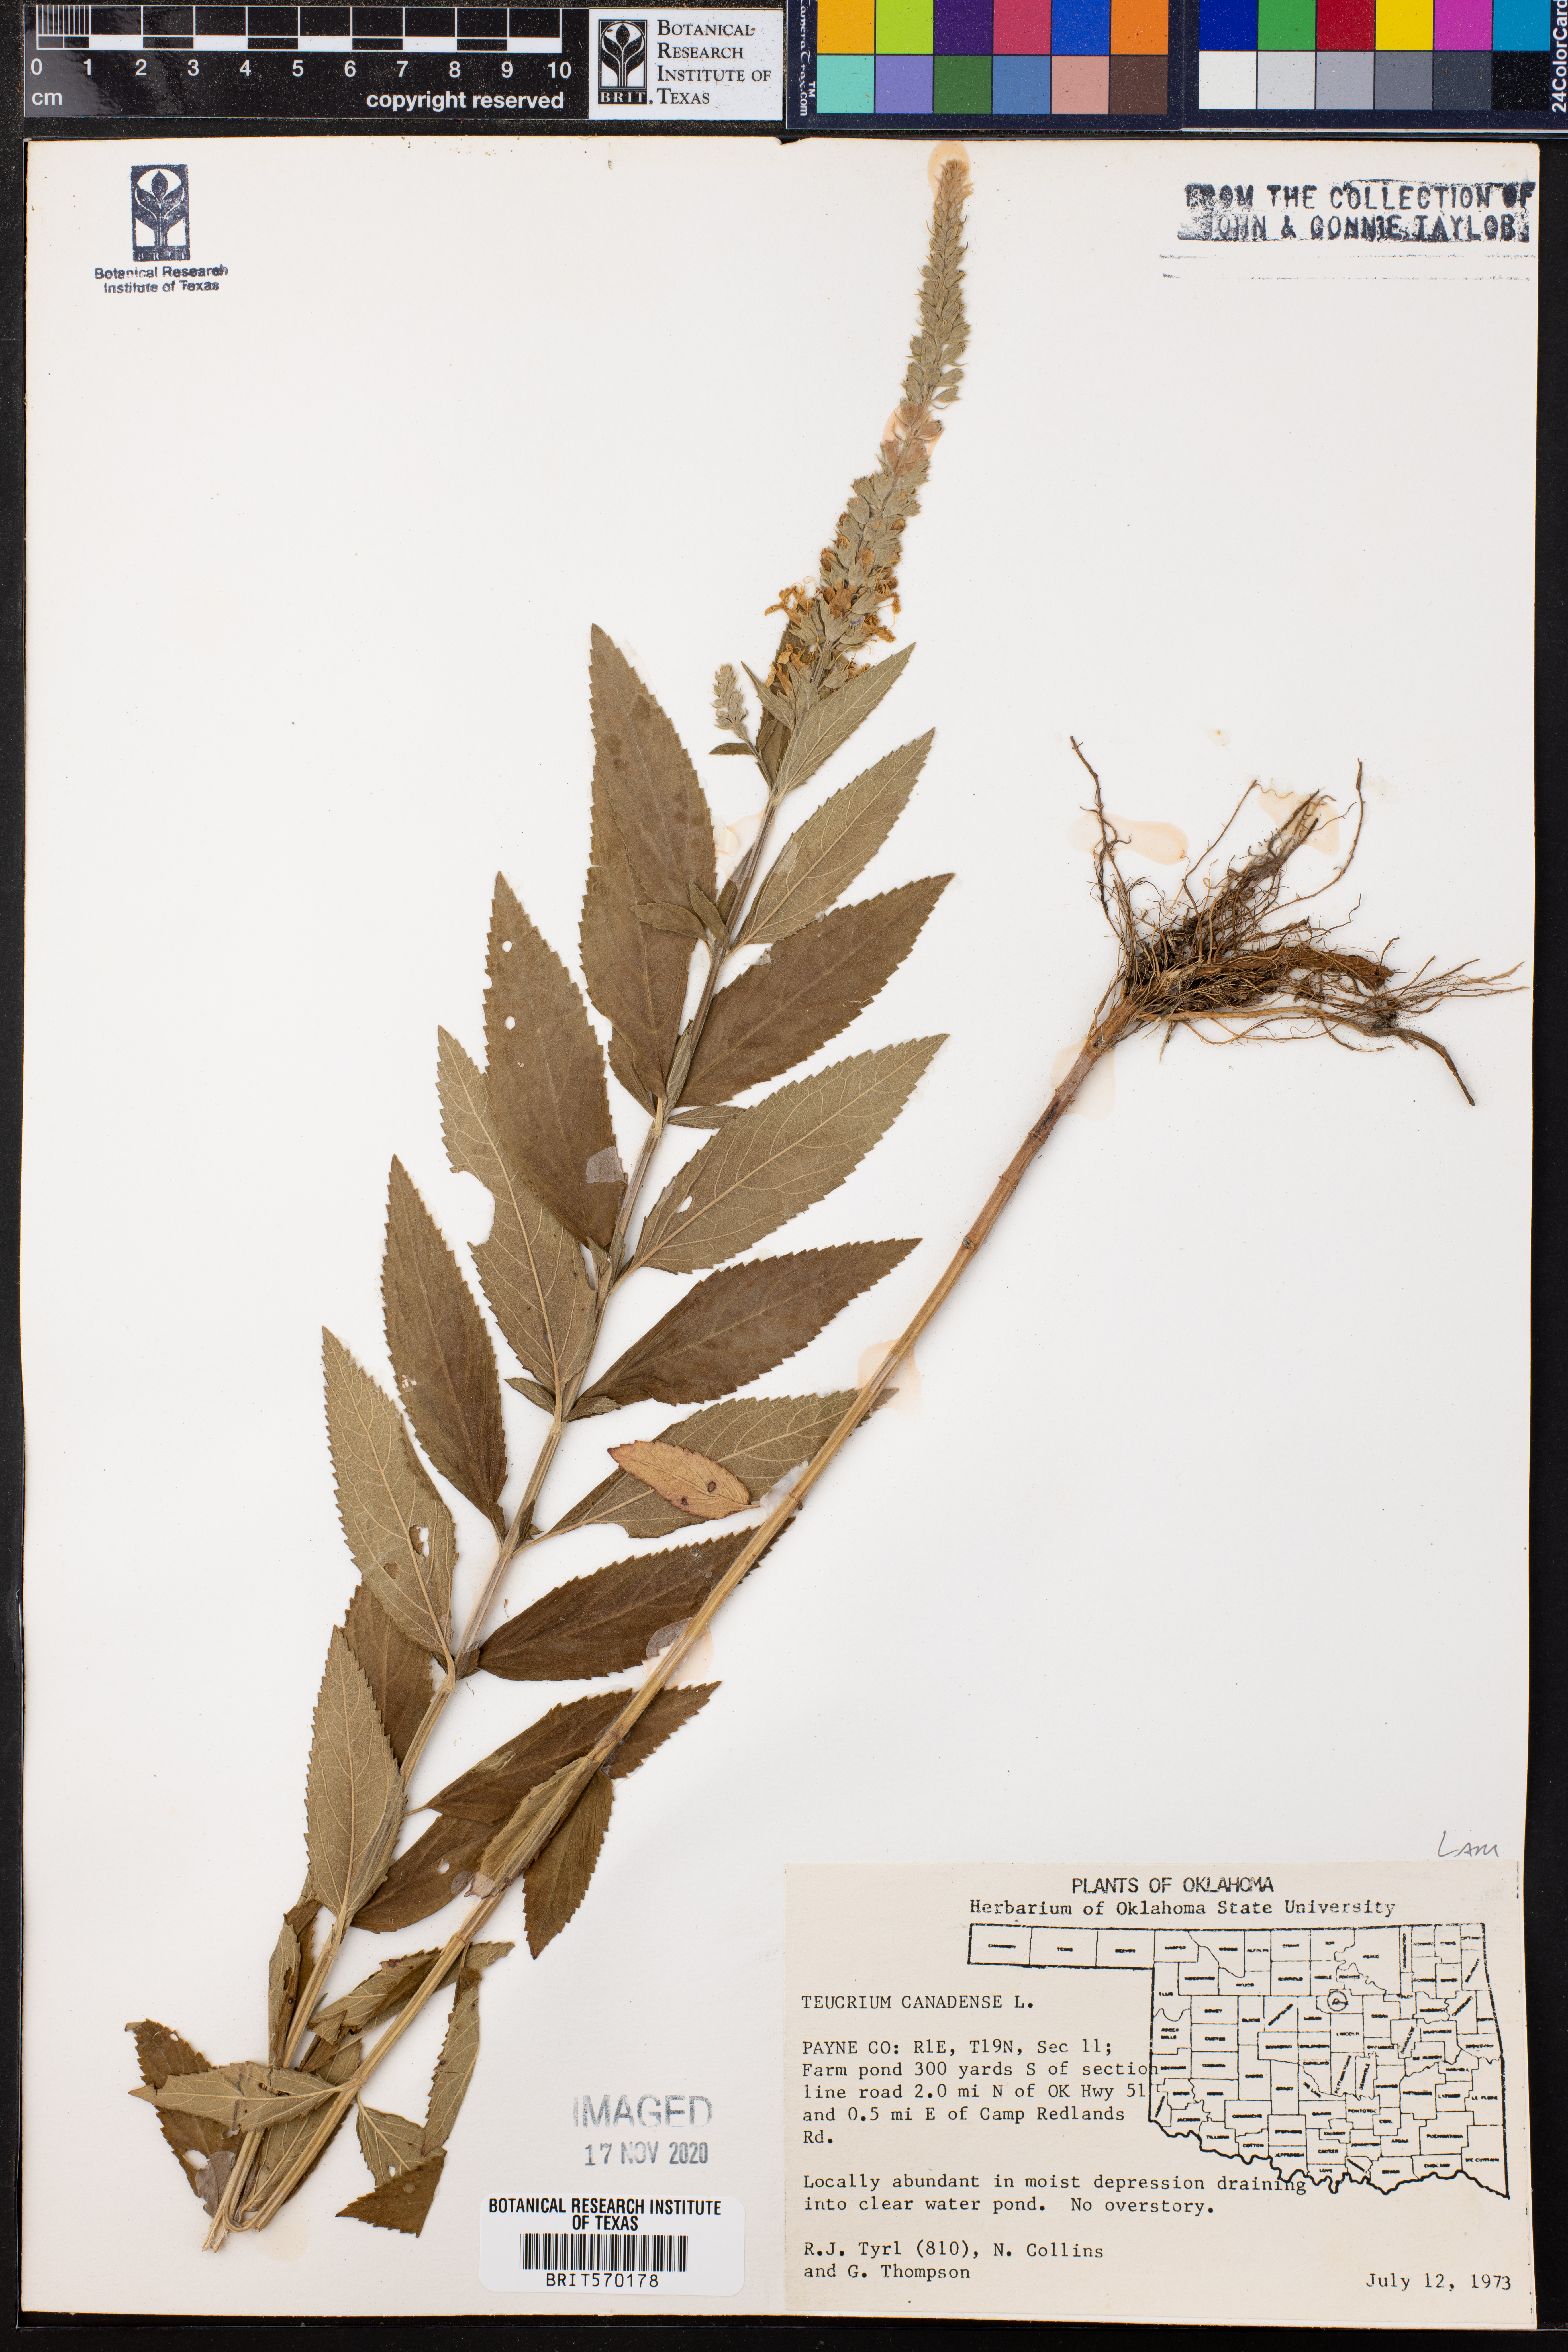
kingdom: Plantae
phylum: Tracheophyta
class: Magnoliopsida
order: Lamiales
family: Lamiaceae
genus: Teucrium
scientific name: Teucrium canadense
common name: American germander
